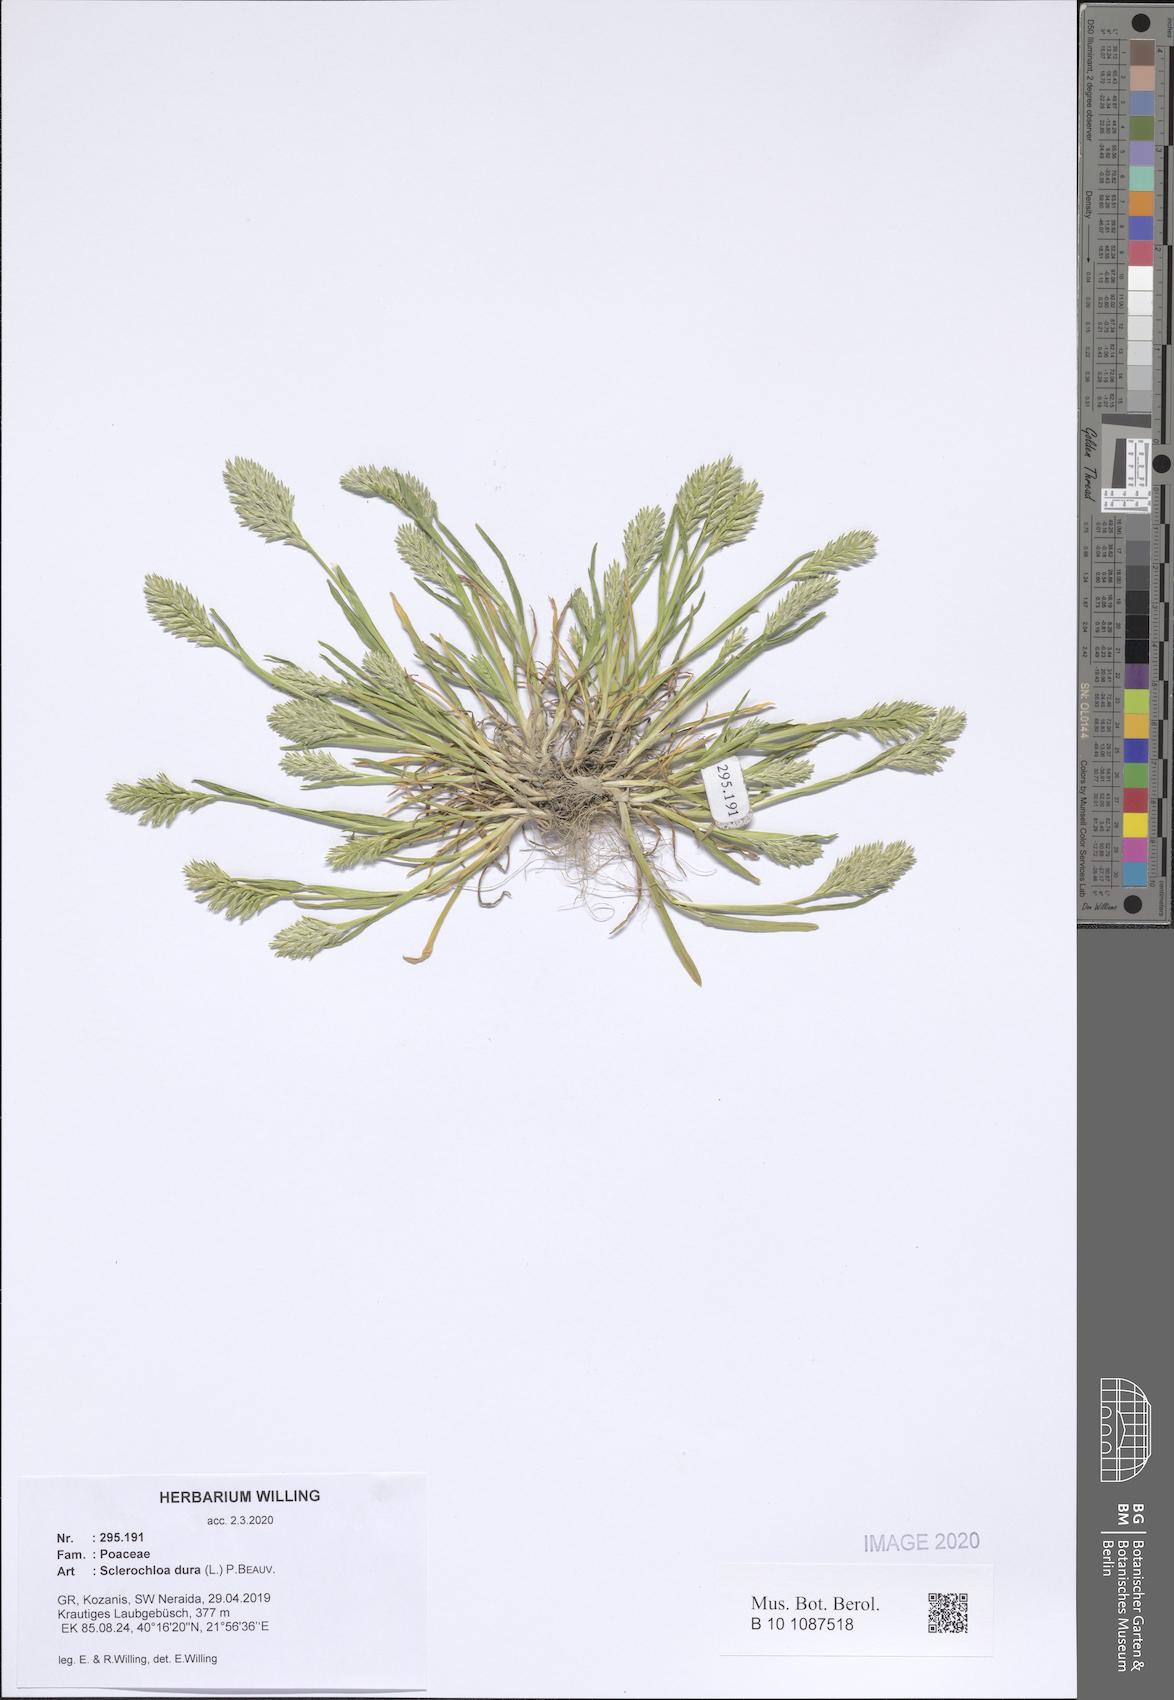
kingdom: Plantae
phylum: Tracheophyta
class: Liliopsida
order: Poales
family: Poaceae
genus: Sclerochloa
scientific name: Sclerochloa dura
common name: Common hardgrass
